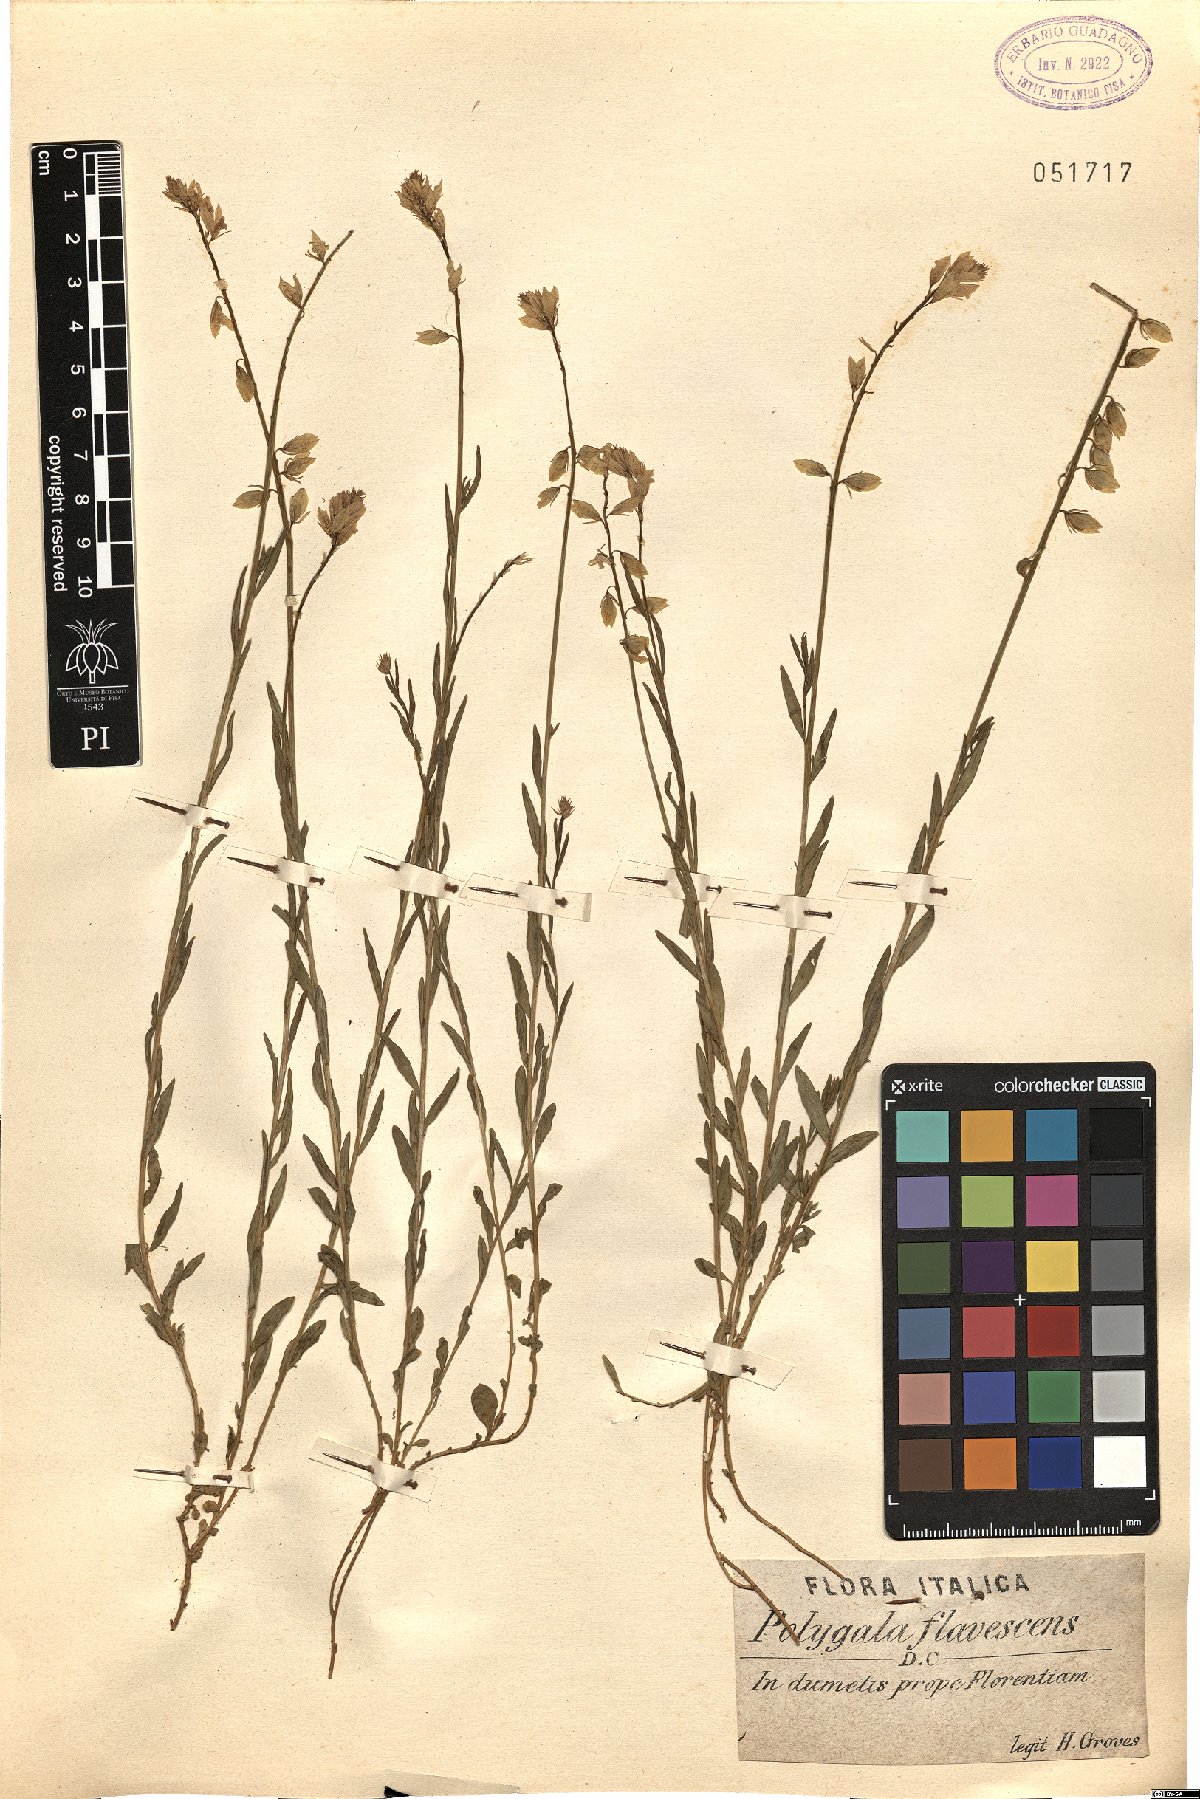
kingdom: Plantae
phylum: Tracheophyta
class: Magnoliopsida
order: Fabales
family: Polygalaceae
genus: Polygala
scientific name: Polygala flavescens
